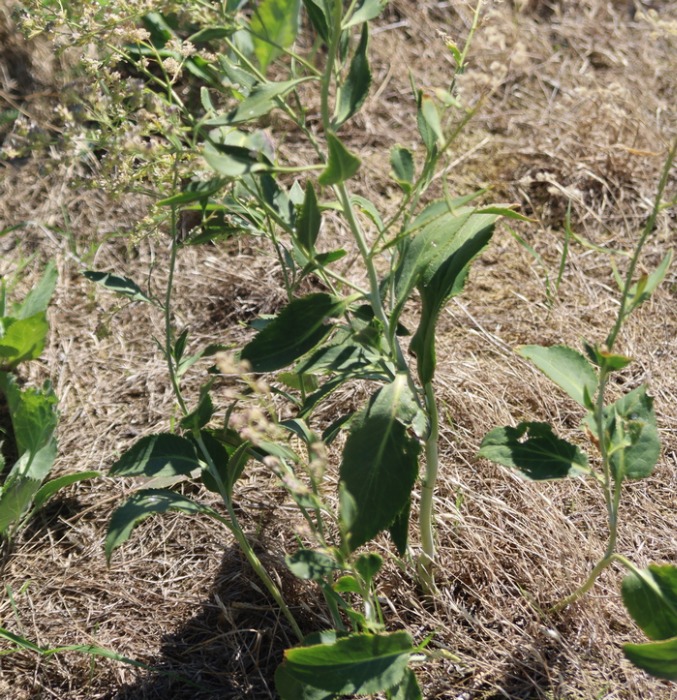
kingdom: Plantae
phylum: Tracheophyta
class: Magnoliopsida
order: Brassicales
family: Brassicaceae
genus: Lepidium
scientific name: Lepidium latifolium
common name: Strand-karse
